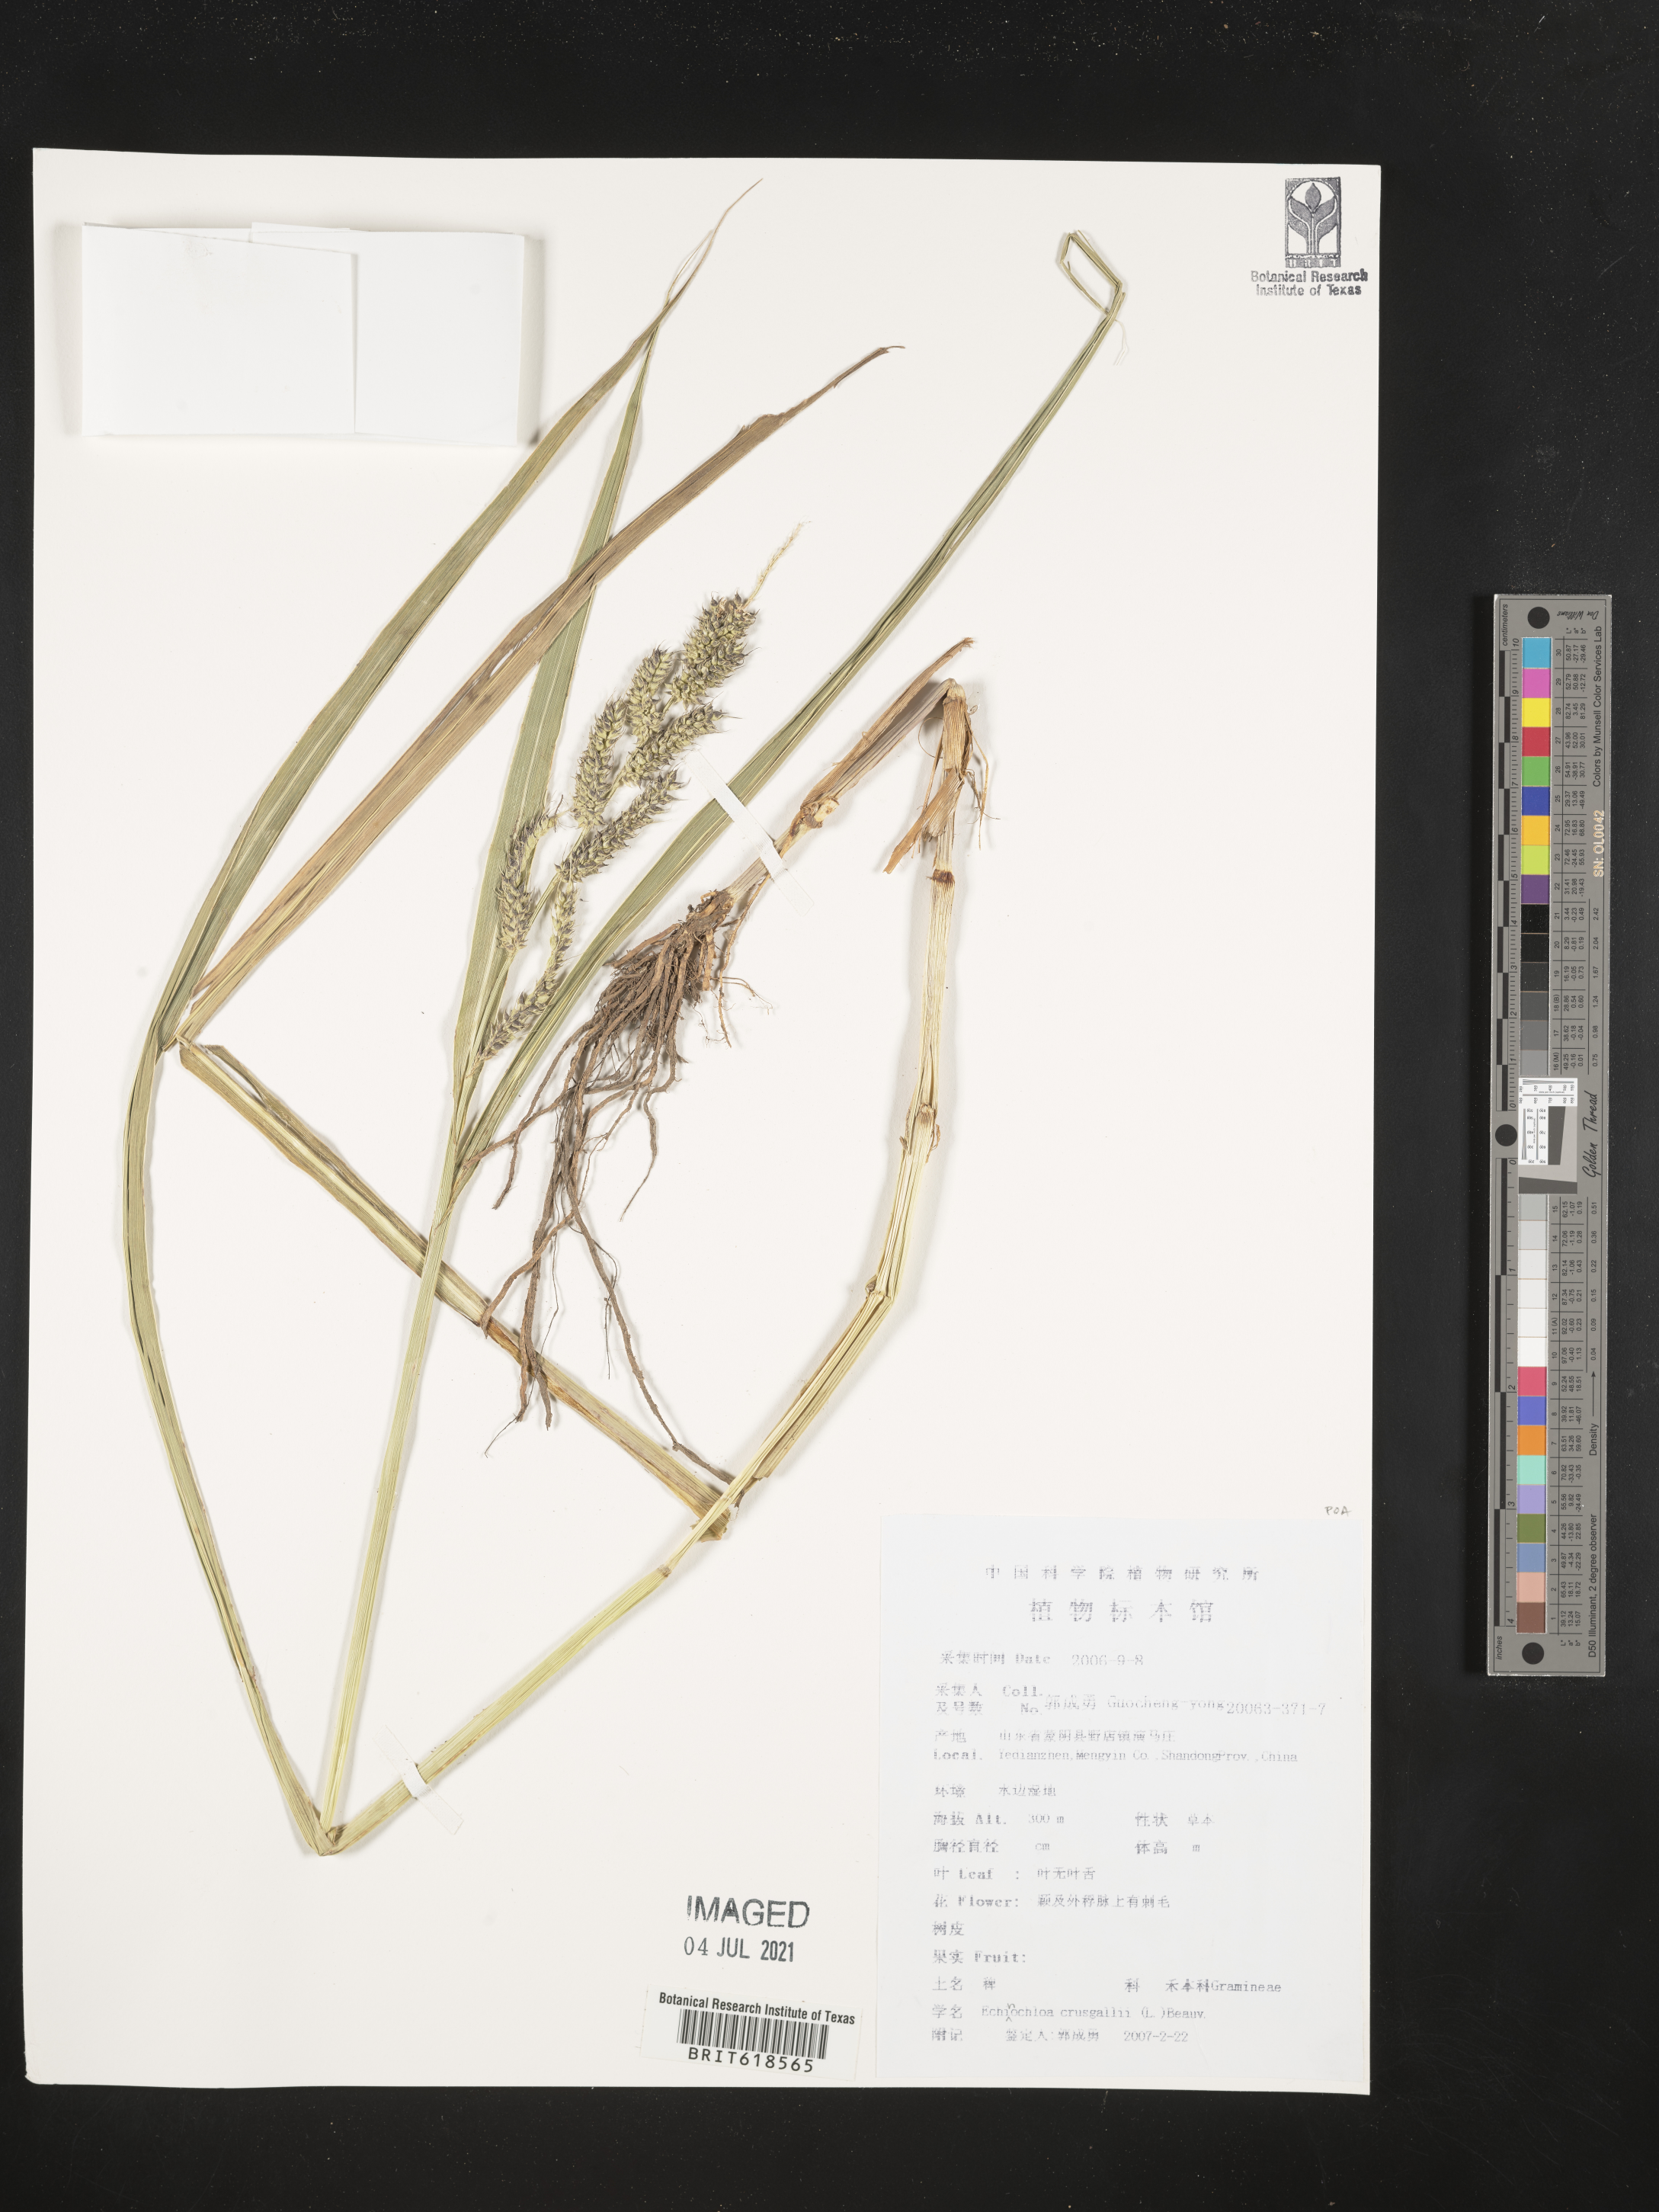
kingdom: Plantae
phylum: Tracheophyta
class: Liliopsida
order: Poales
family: Poaceae
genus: Echinochloa
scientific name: Echinochloa crus-galli
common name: Cockspur
